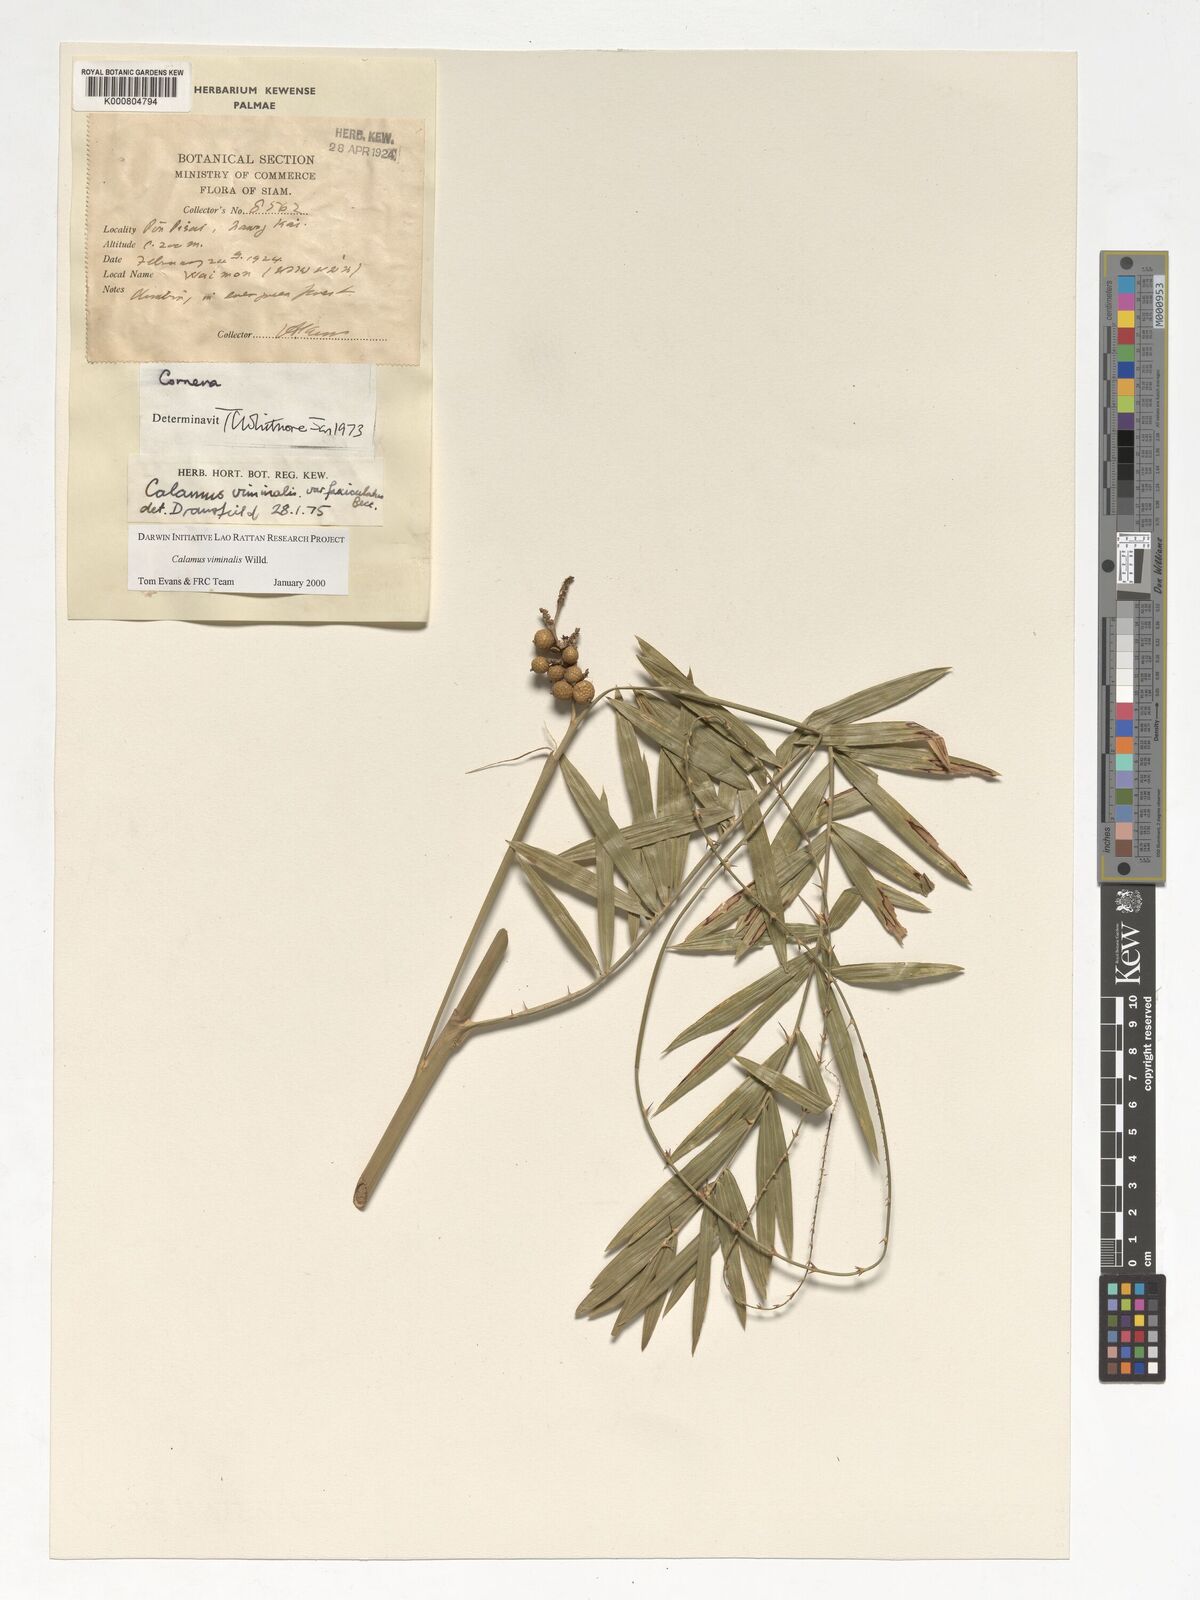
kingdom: Plantae
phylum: Tracheophyta
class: Liliopsida
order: Arecales
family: Arecaceae
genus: Calamus
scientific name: Calamus viminalis
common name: Osier-like rattan palm
